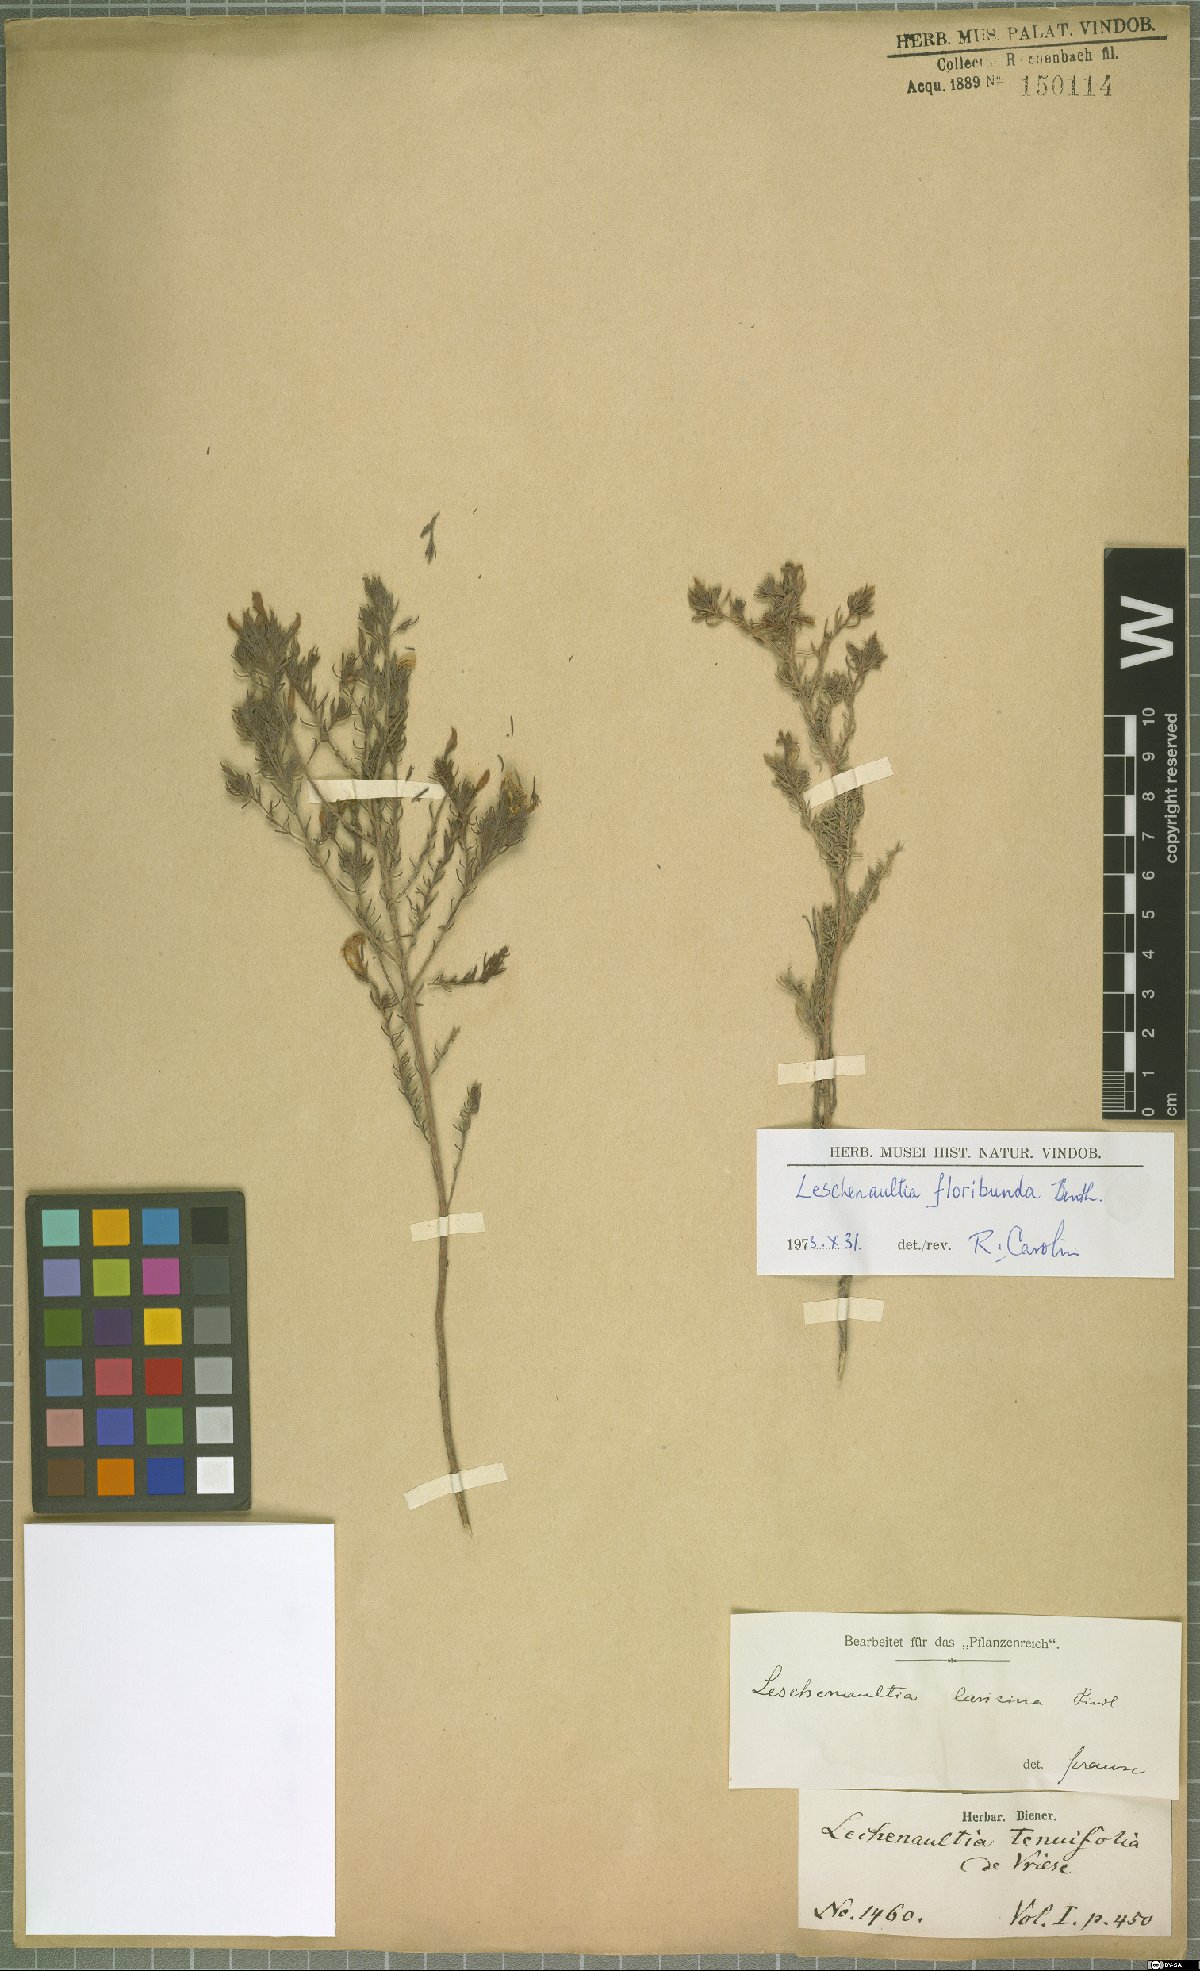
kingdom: Plantae
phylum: Tracheophyta
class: Magnoliopsida
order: Asterales
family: Goodeniaceae
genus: Lechenaultia
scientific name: Lechenaultia laricina
